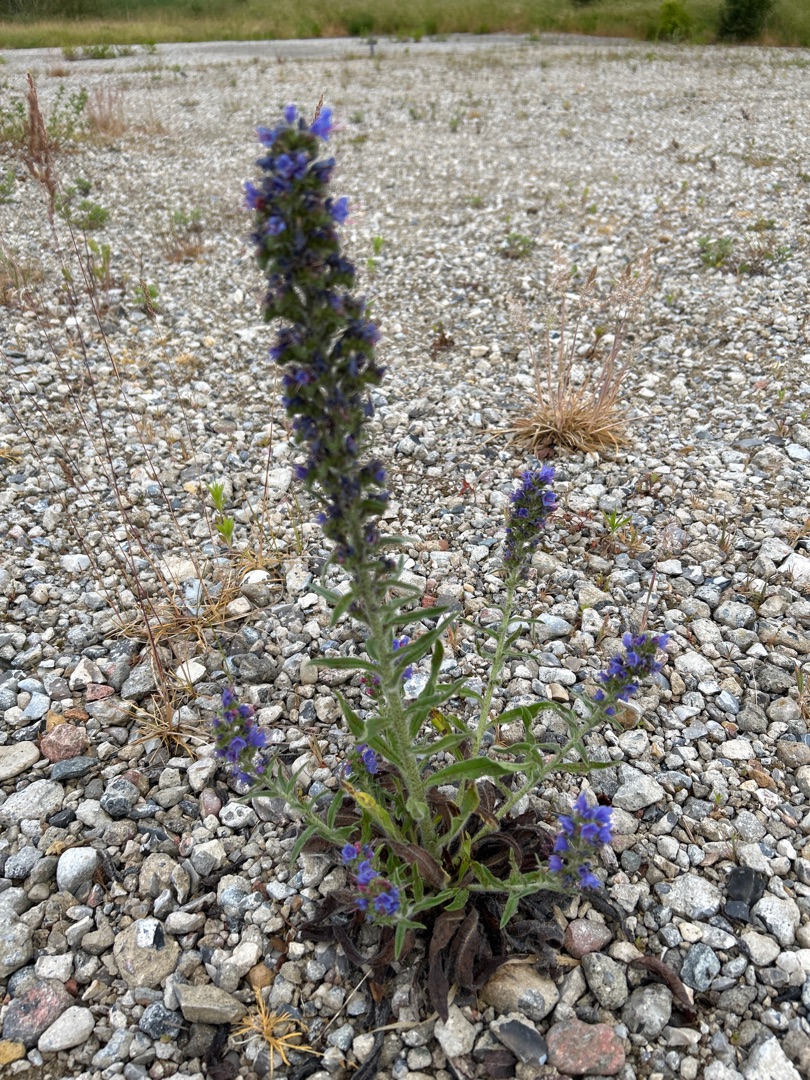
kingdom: Plantae
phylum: Tracheophyta
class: Magnoliopsida
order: Boraginales
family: Boraginaceae
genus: Echium
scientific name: Echium vulgare
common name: Slangehoved
